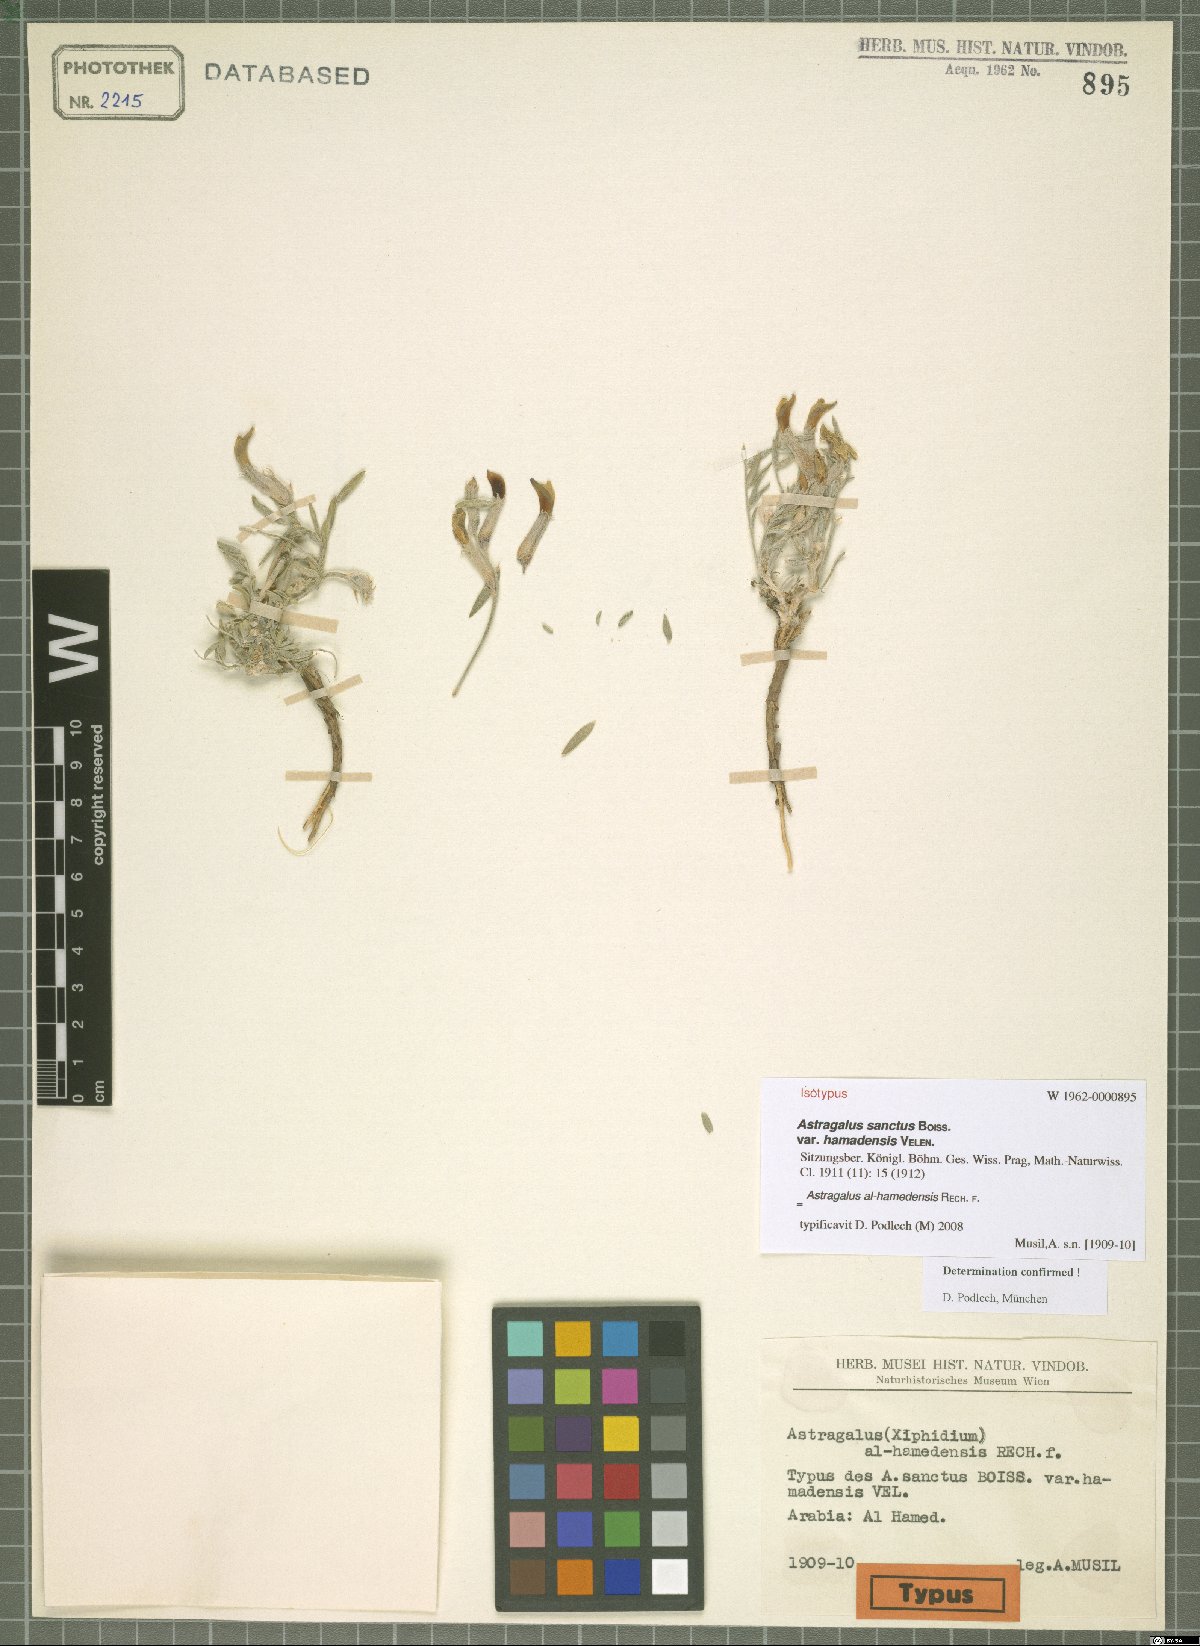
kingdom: Plantae
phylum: Tracheophyta
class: Magnoliopsida
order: Fabales
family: Fabaceae
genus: Astragalus
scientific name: Astragalus alhamedensis
